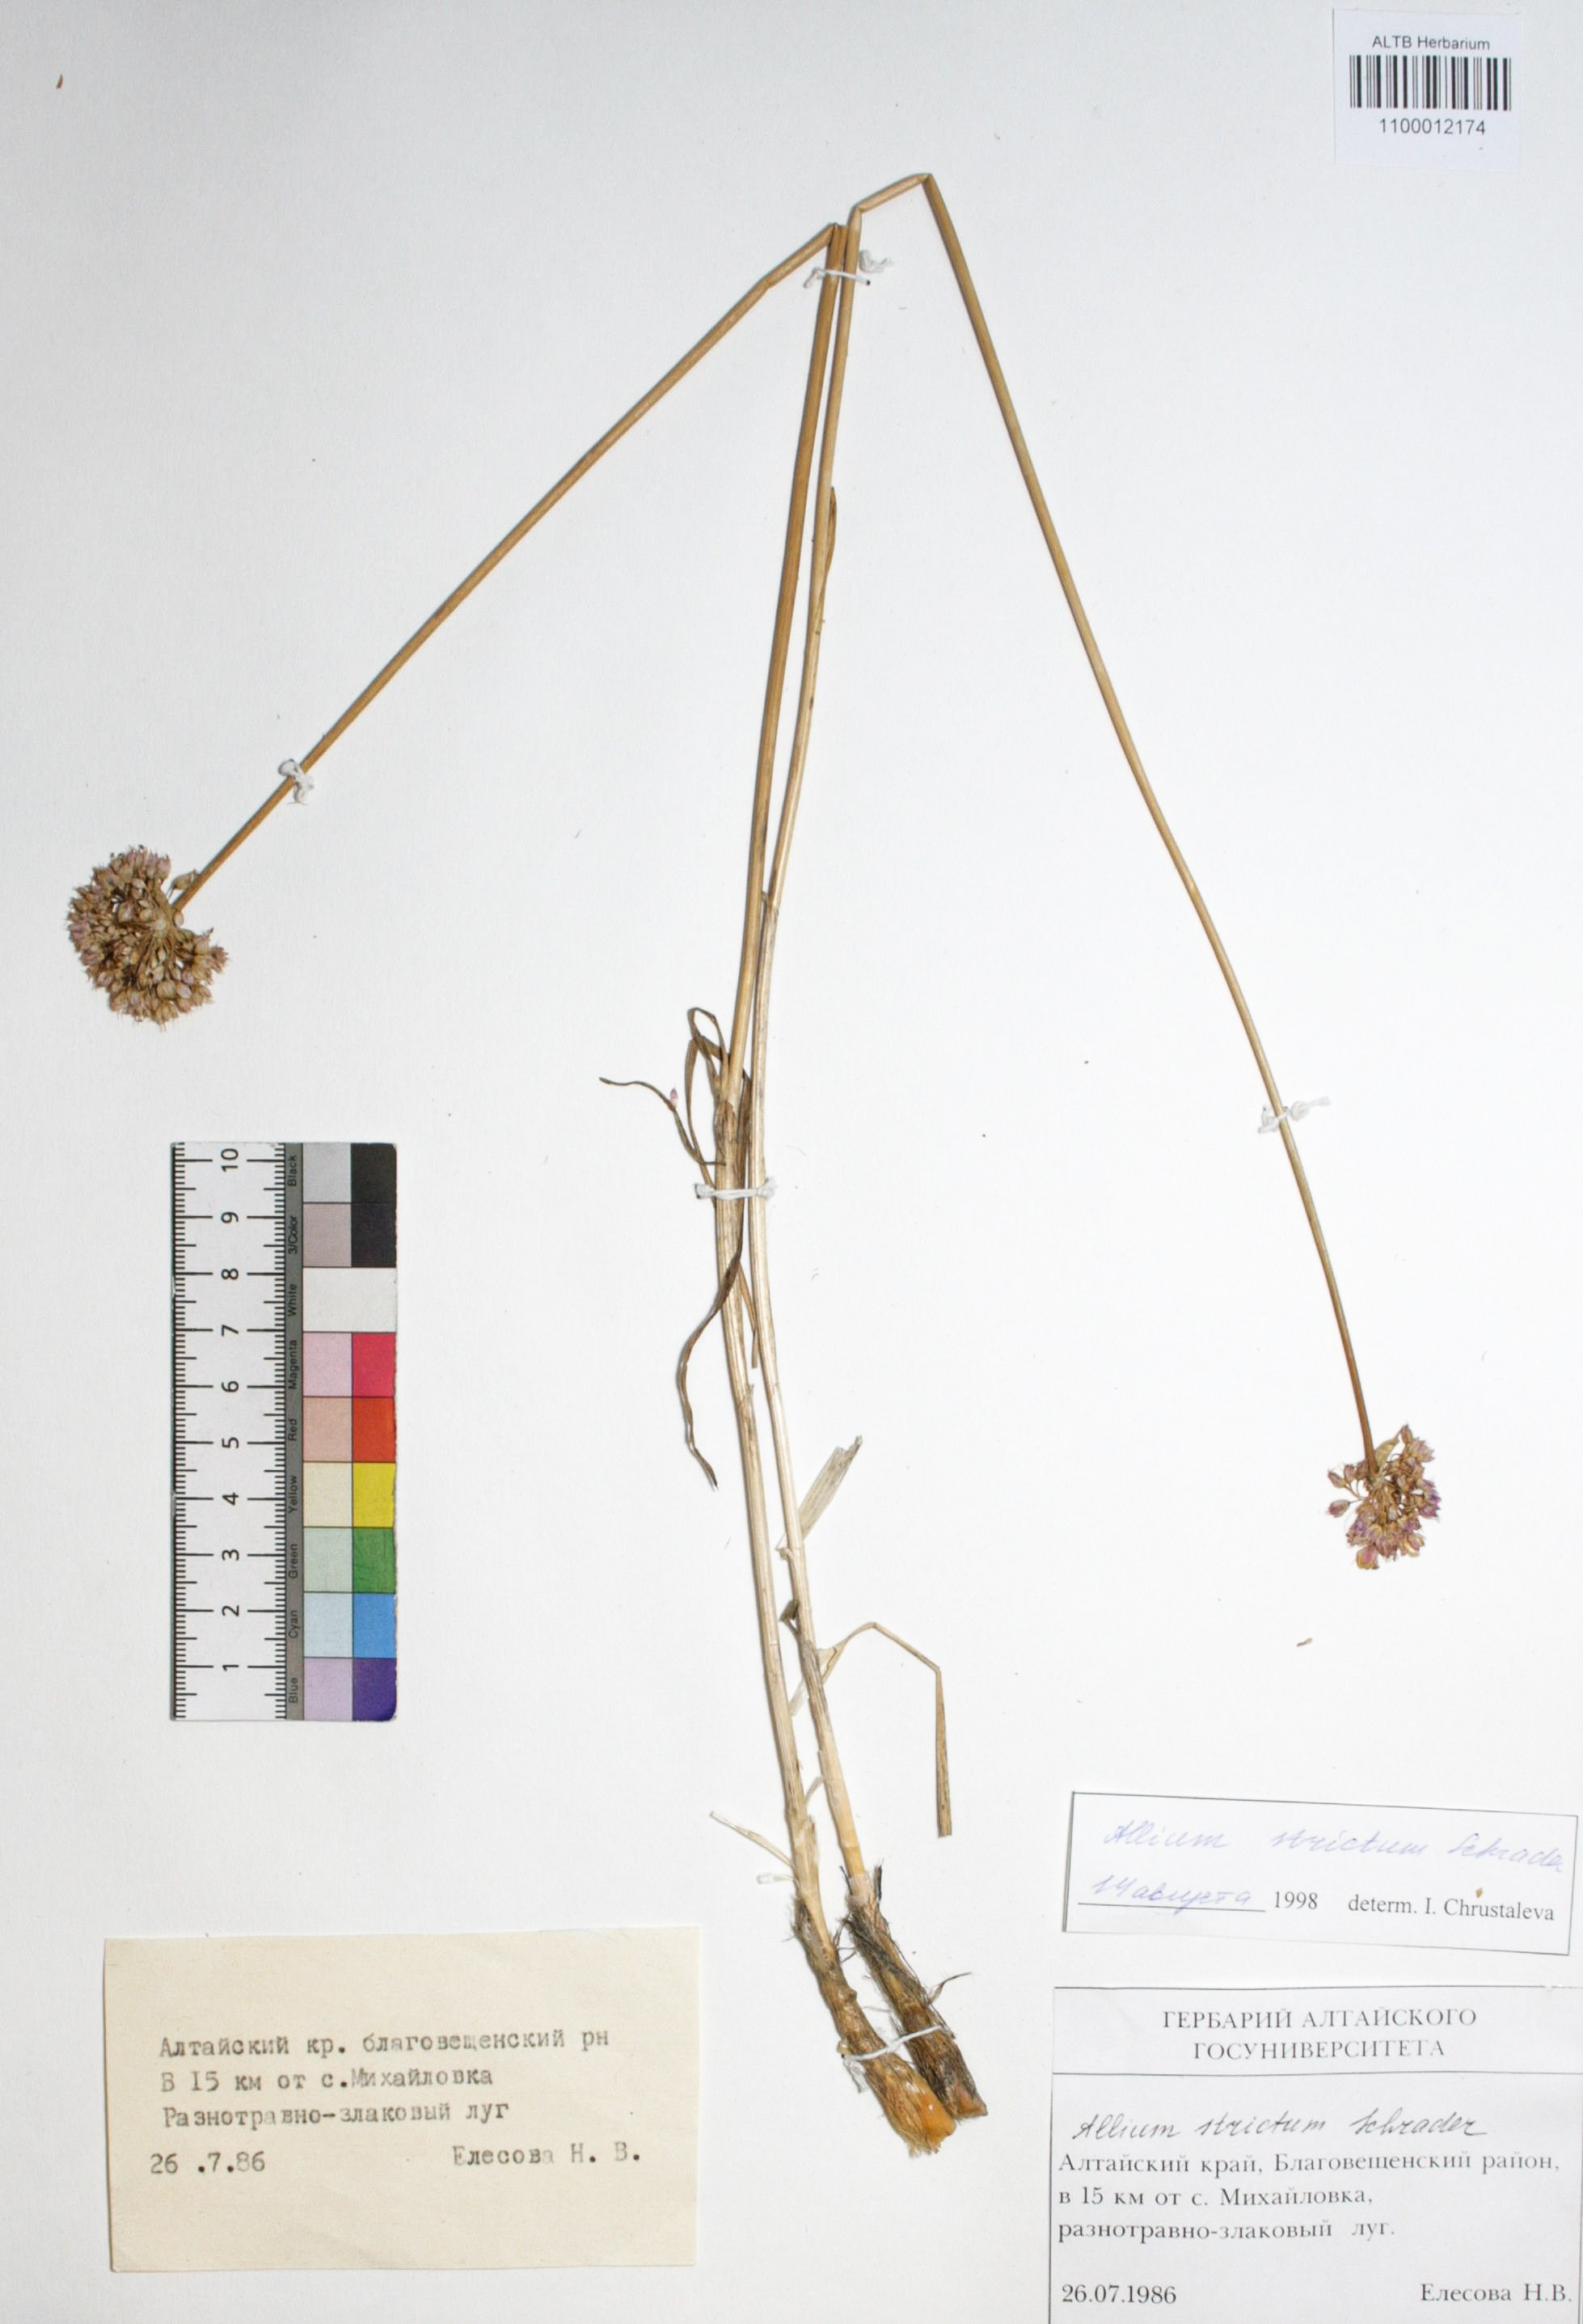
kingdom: Plantae
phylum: Tracheophyta
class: Liliopsida
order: Asparagales
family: Amaryllidaceae
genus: Allium
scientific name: Allium strictum
